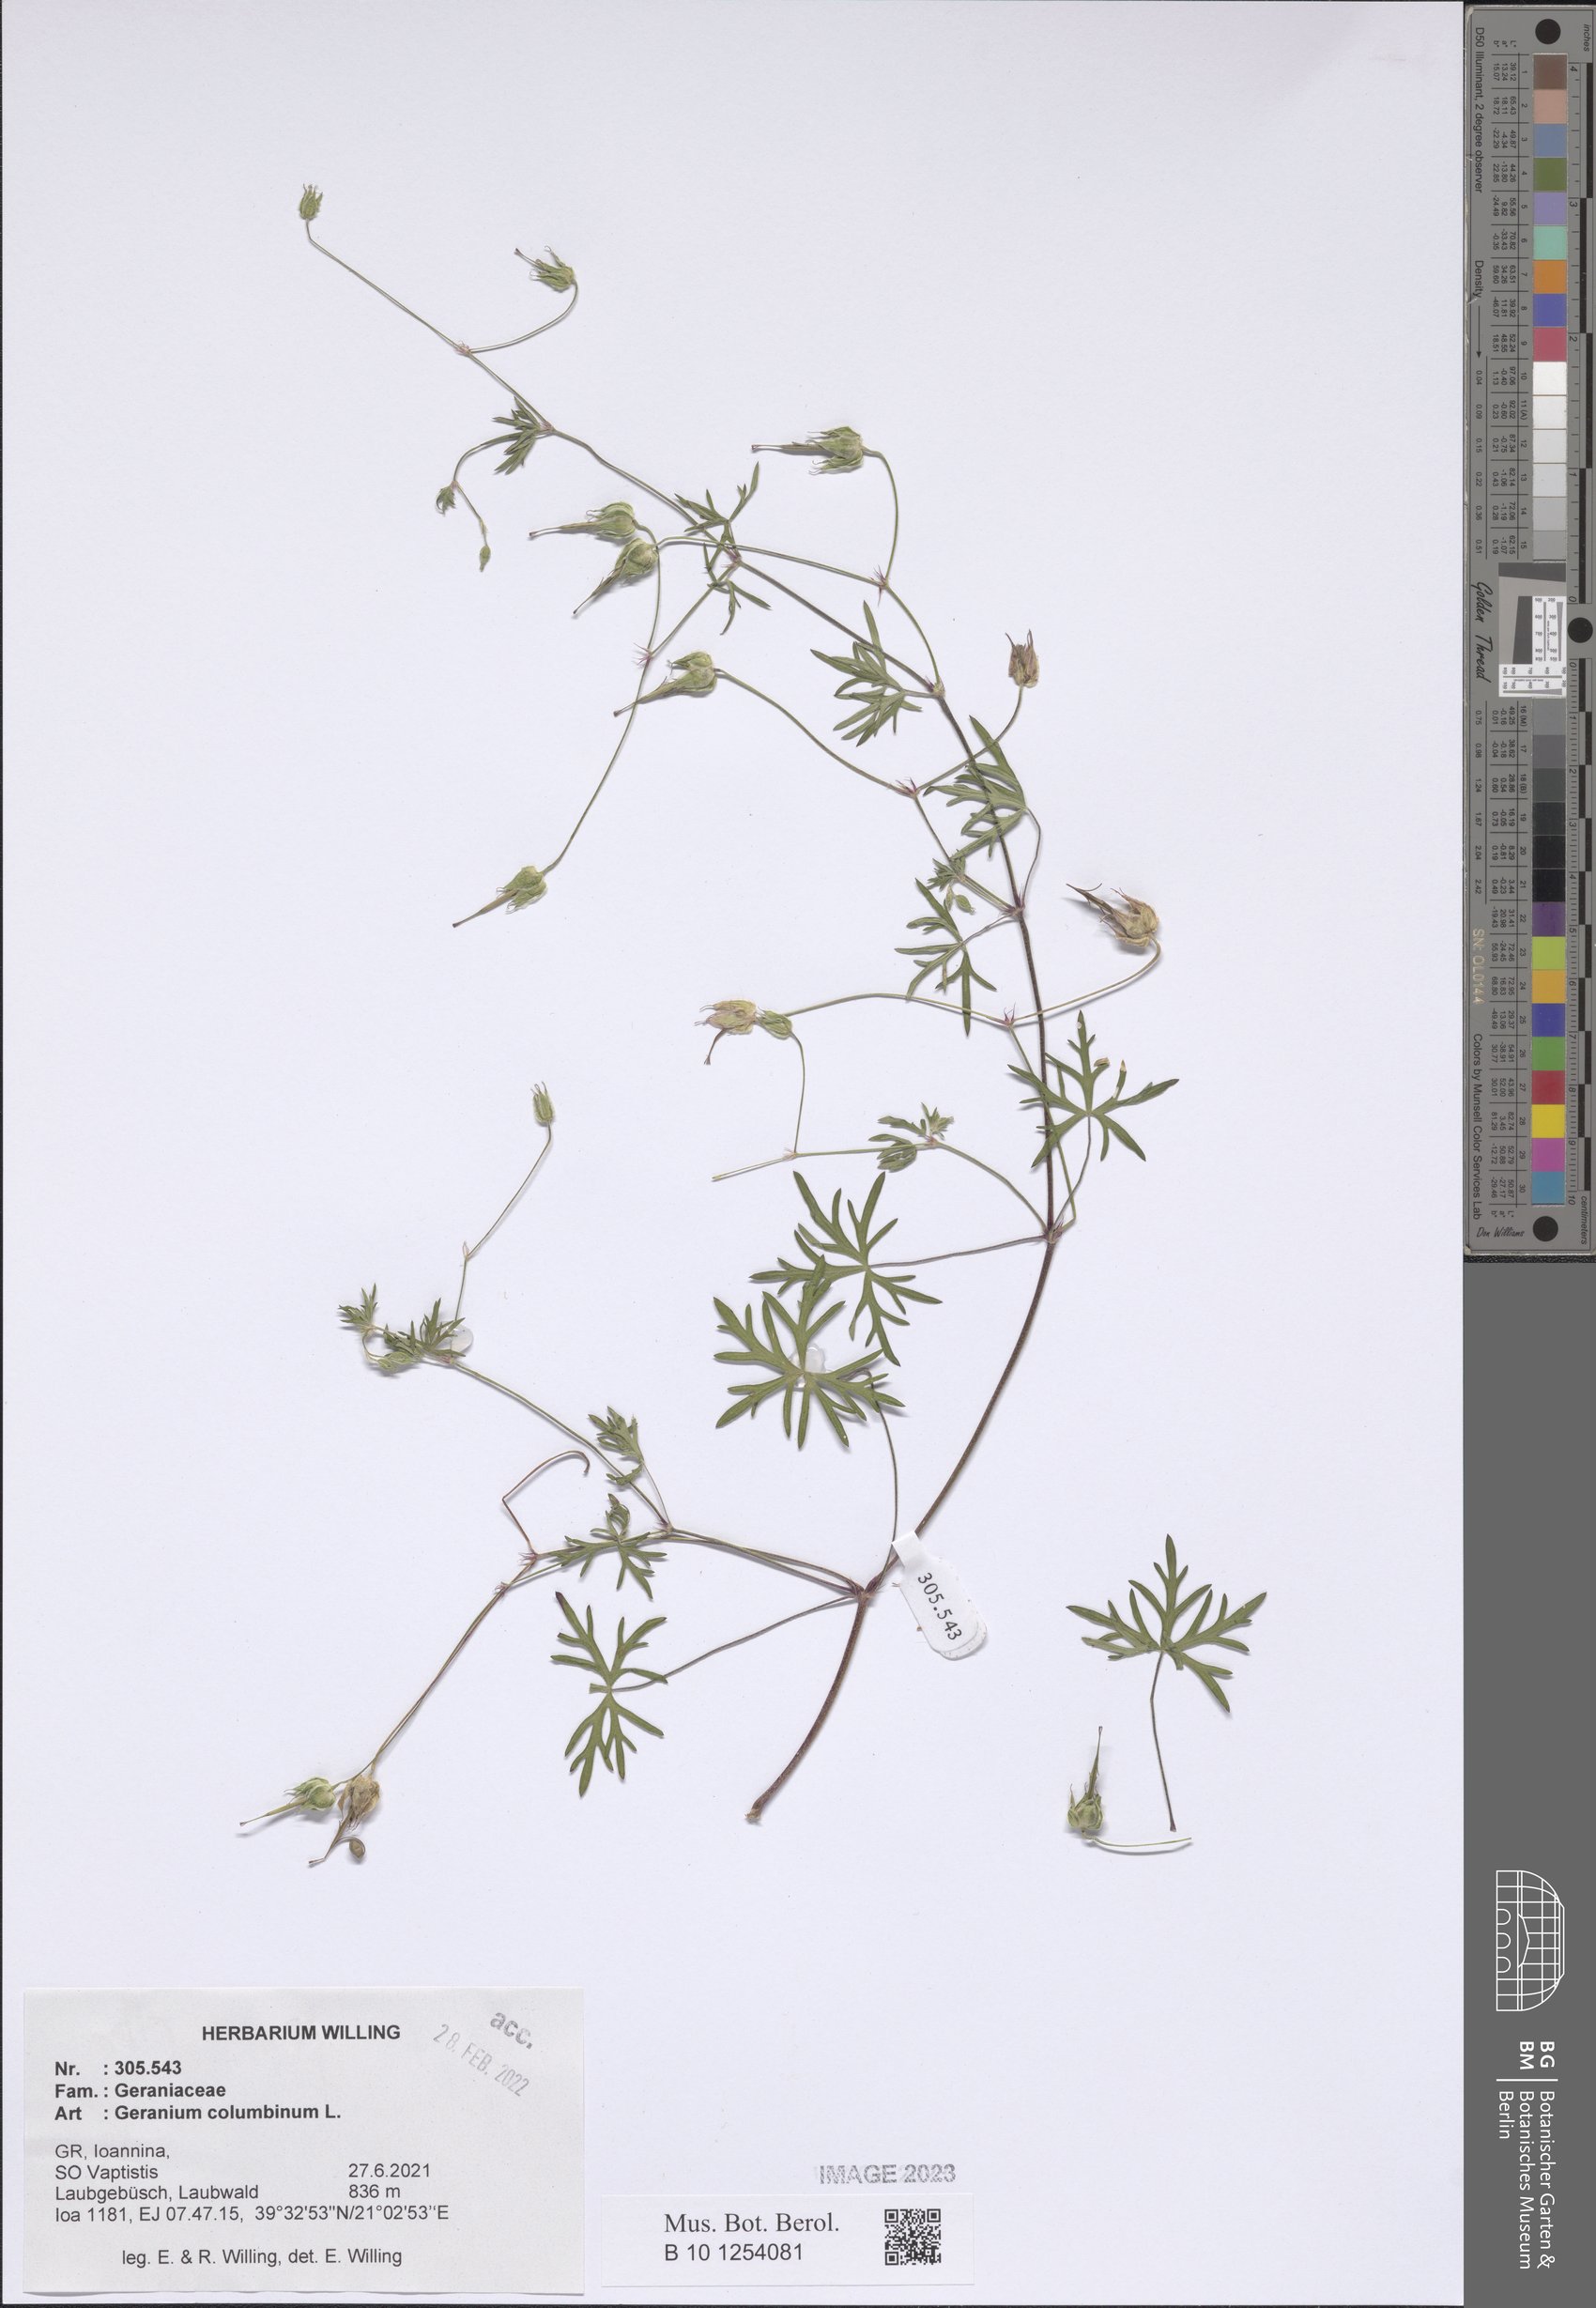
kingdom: Plantae
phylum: Tracheophyta
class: Magnoliopsida
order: Geraniales
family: Geraniaceae
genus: Geranium
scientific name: Geranium columbinum
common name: Long-stalked crane's-bill
